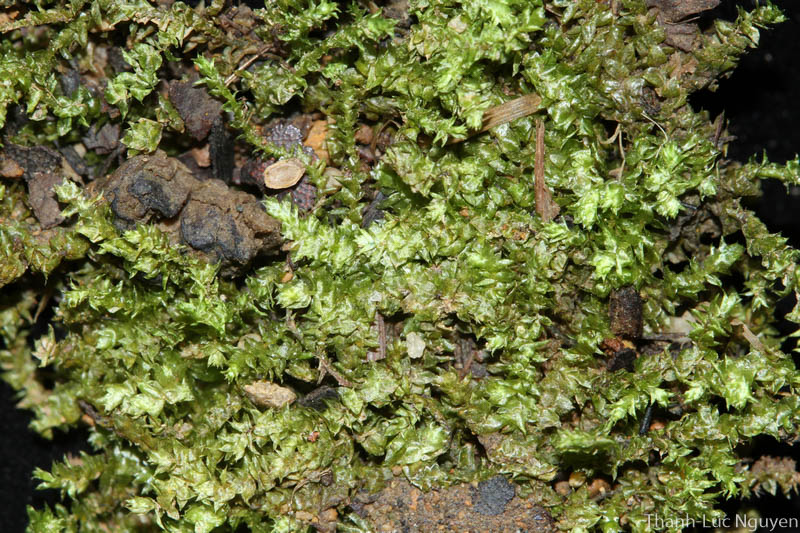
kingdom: Plantae
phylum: Bryophyta
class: Bryopsida
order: Hypnales
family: Hylocomiaceae
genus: Macrothamnium
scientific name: Macrothamnium
